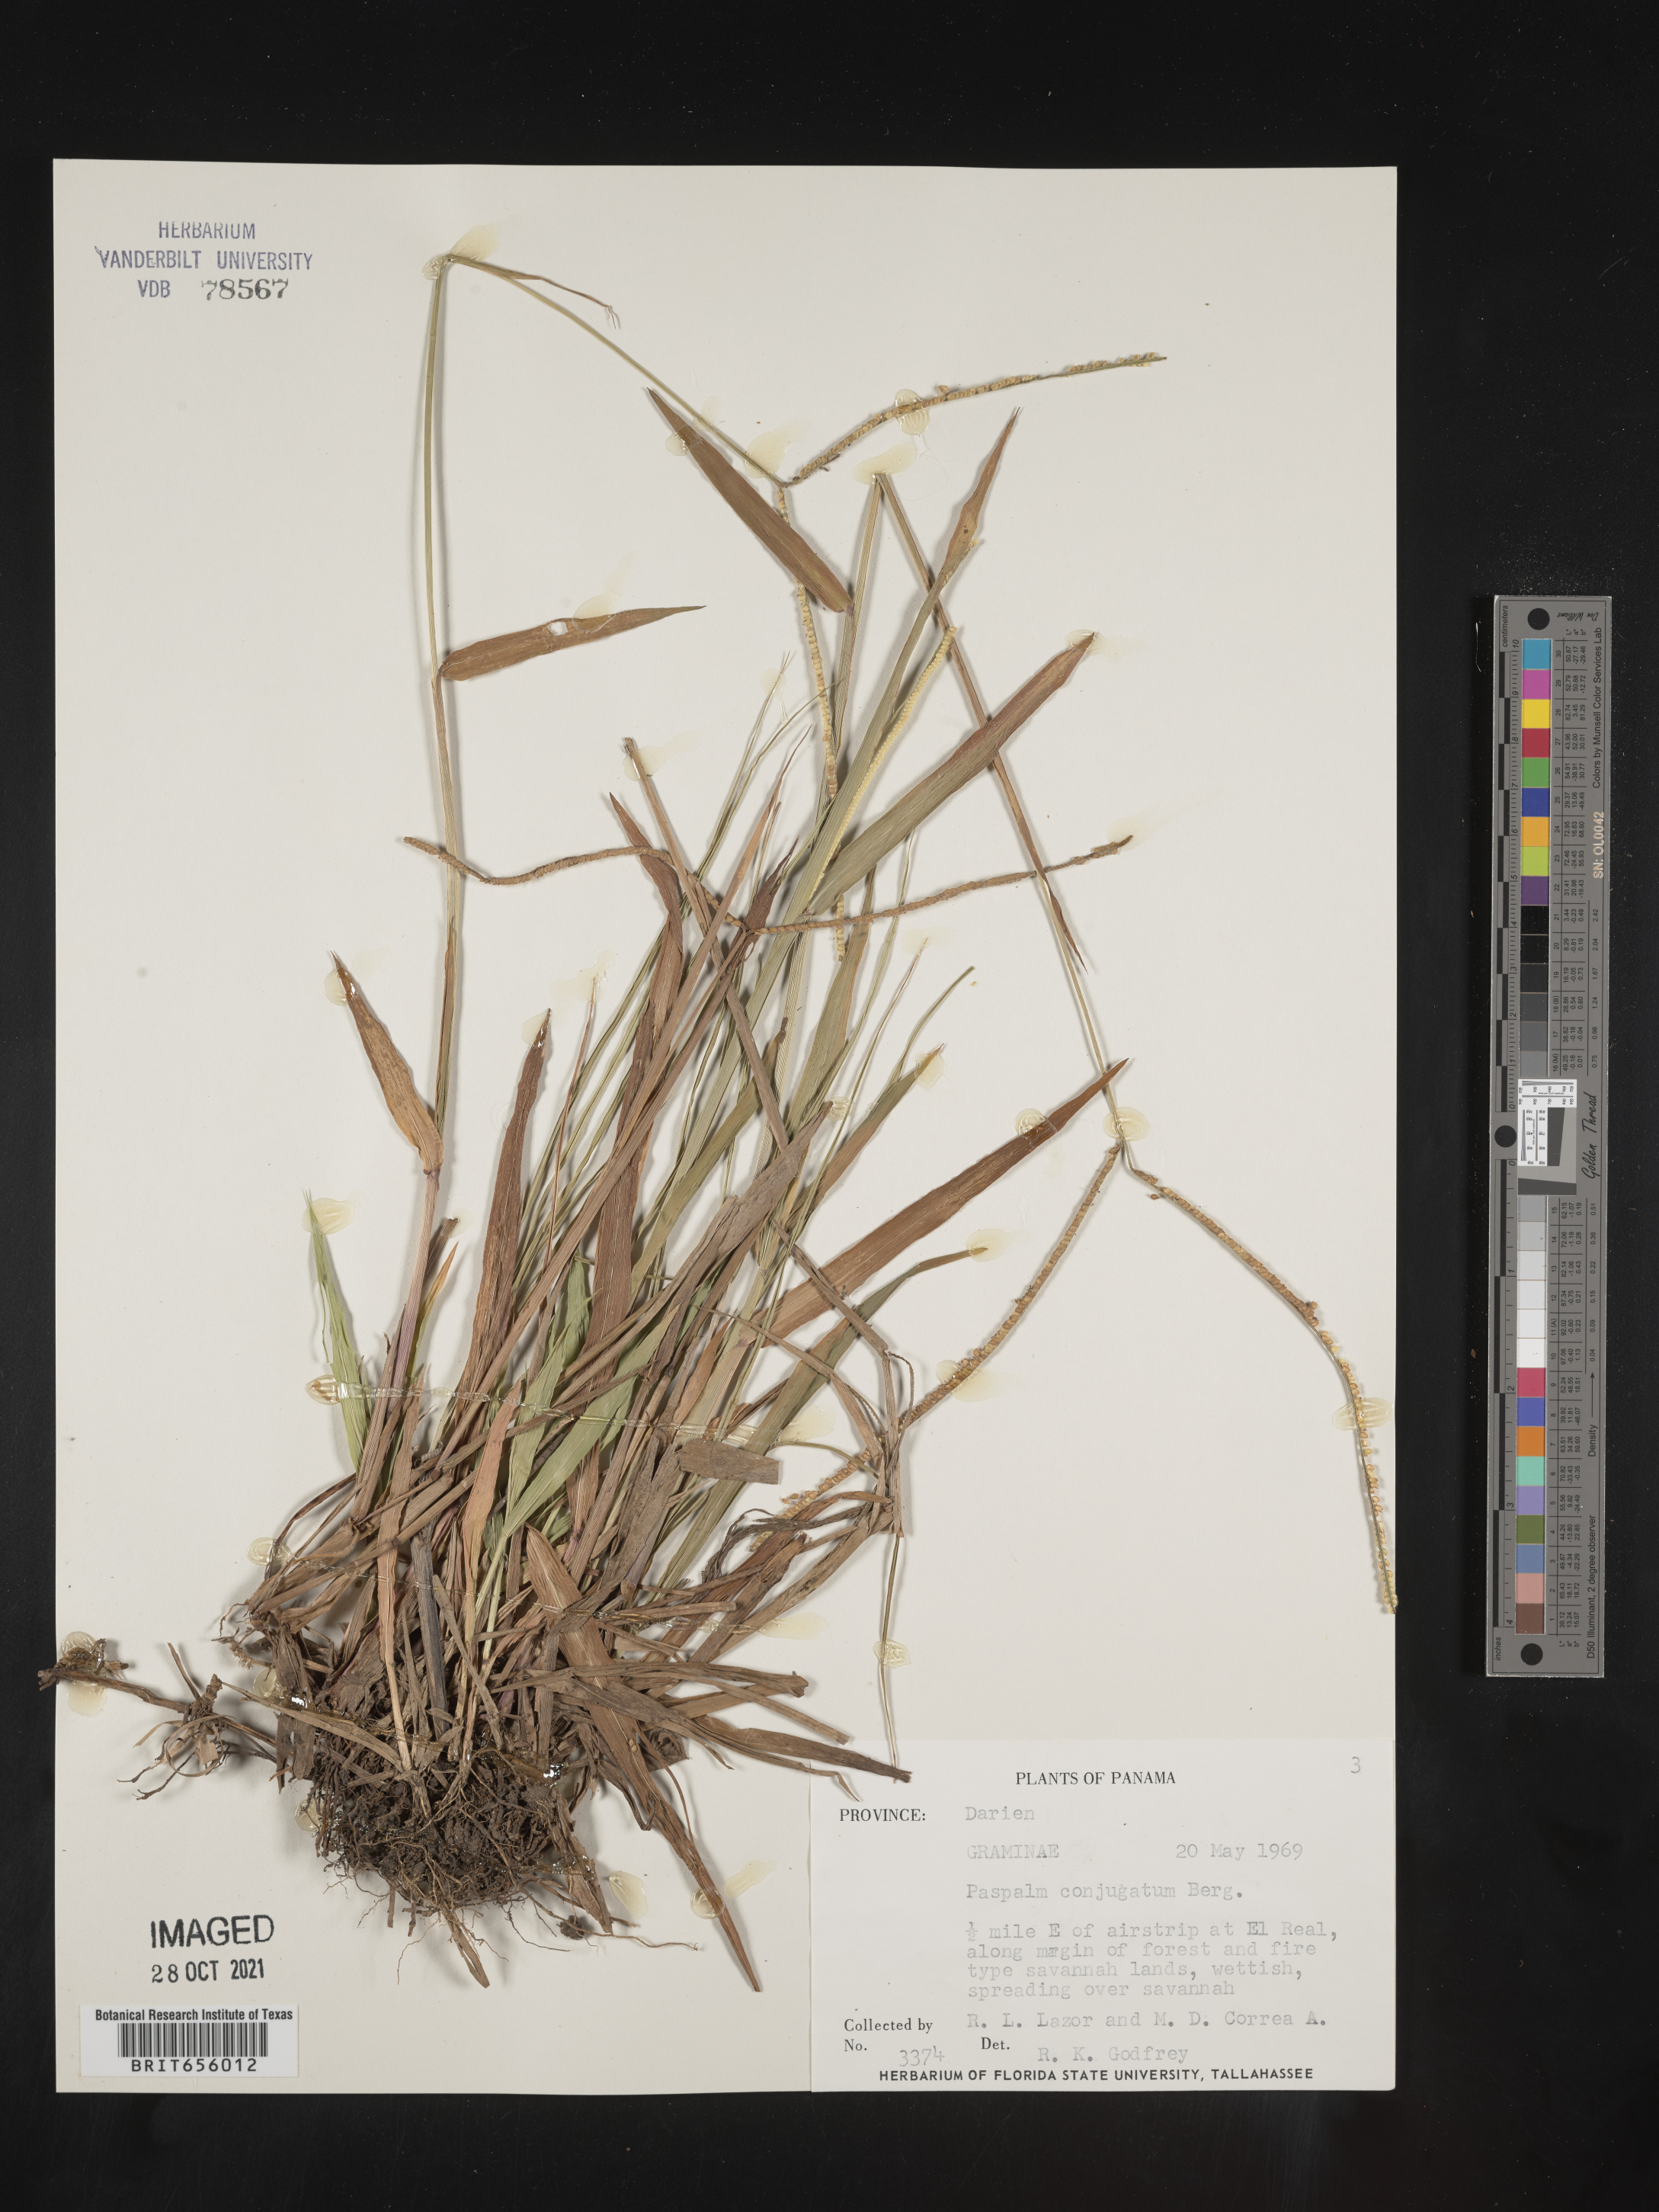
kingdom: Plantae
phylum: Tracheophyta
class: Liliopsida
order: Poales
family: Poaceae
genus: Paspalum
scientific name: Paspalum
